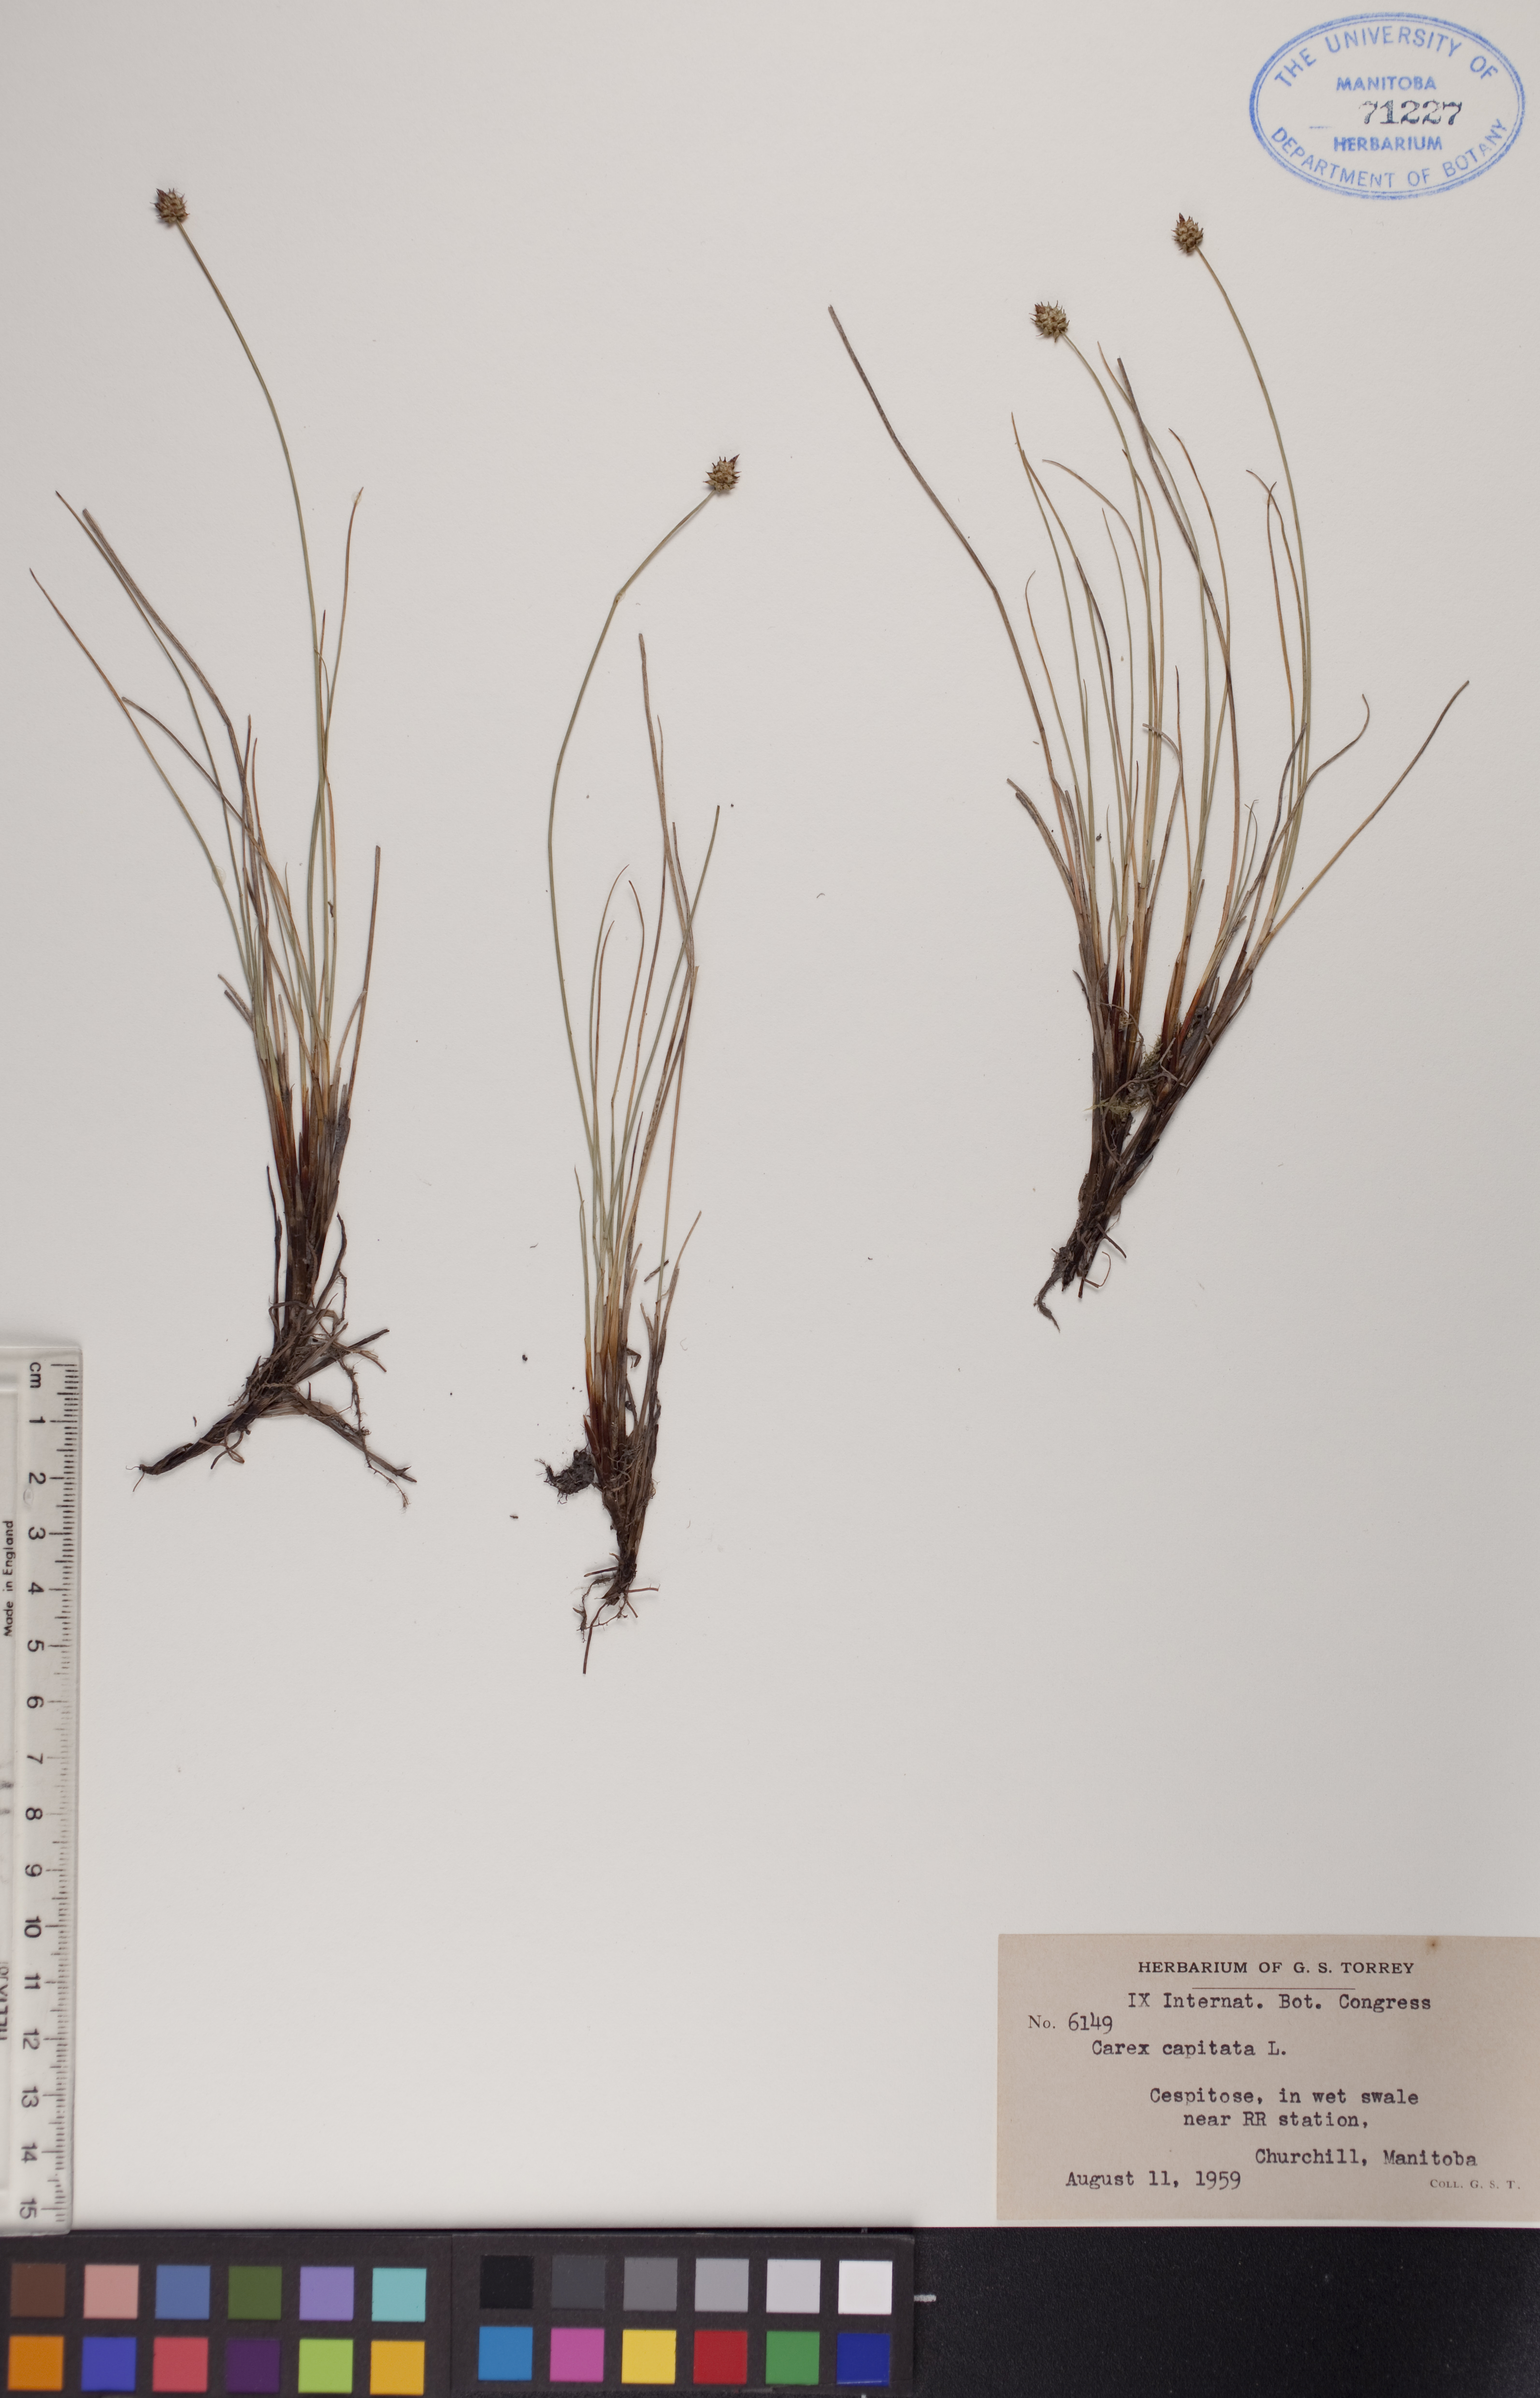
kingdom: Plantae
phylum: Tracheophyta
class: Liliopsida
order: Poales
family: Cyperaceae
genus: Carex
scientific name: Carex capitata
